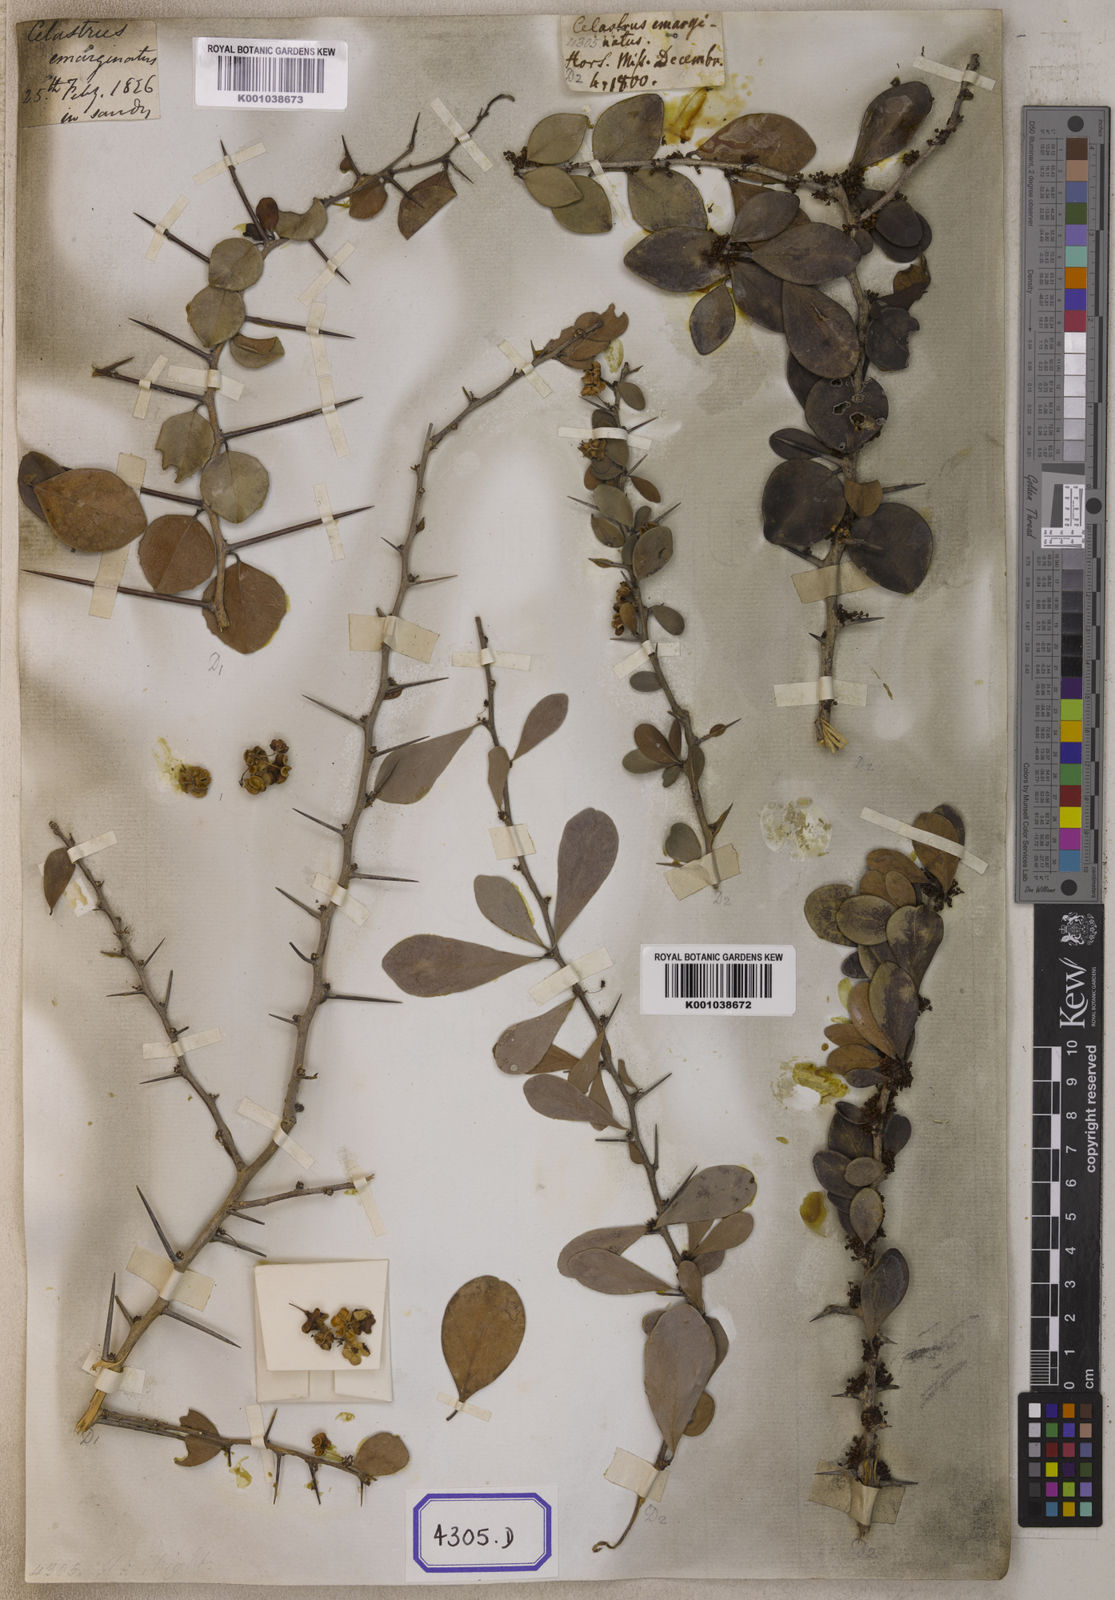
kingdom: Plantae
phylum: Tracheophyta
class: Magnoliopsida
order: Celastrales
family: Celastraceae
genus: Gymnosporia
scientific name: Gymnosporia emarginata
